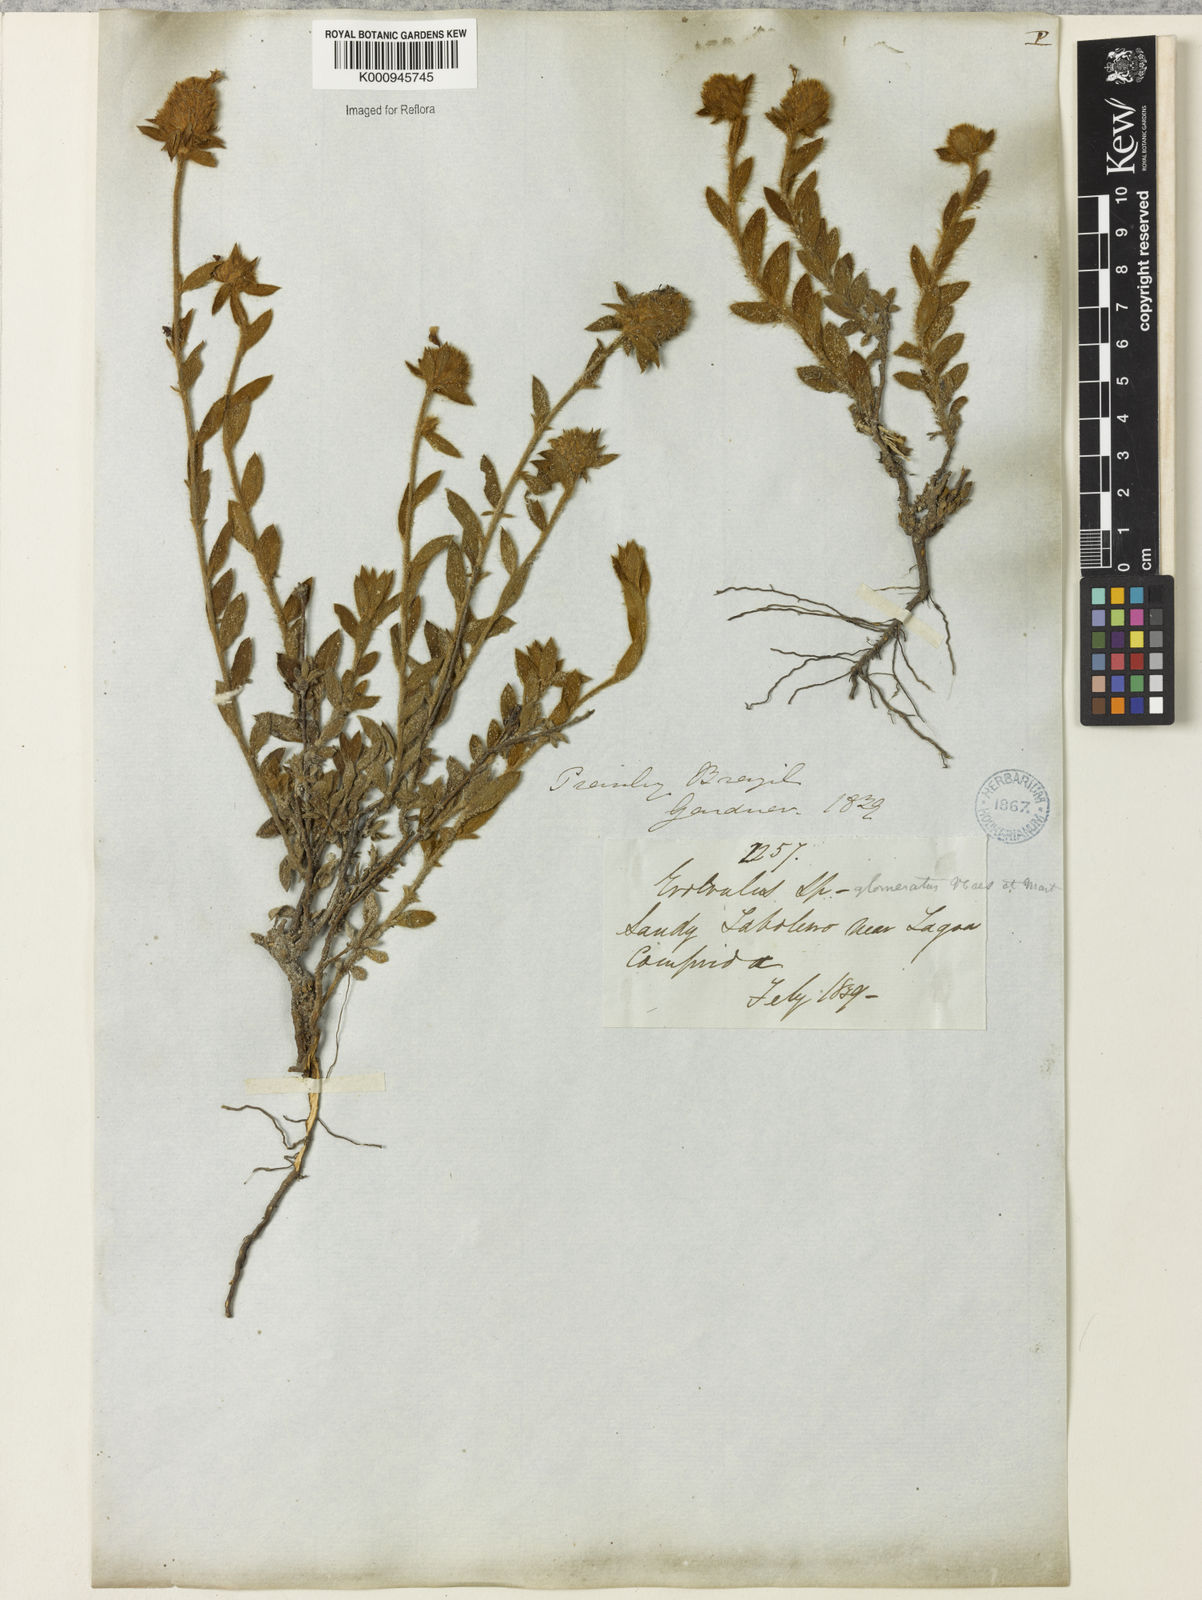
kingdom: Plantae
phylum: Tracheophyta
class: Magnoliopsida
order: Solanales
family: Convolvulaceae
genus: Evolvulus
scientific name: Evolvulus glomeratus
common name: Brazilian dwarf morning-glory
